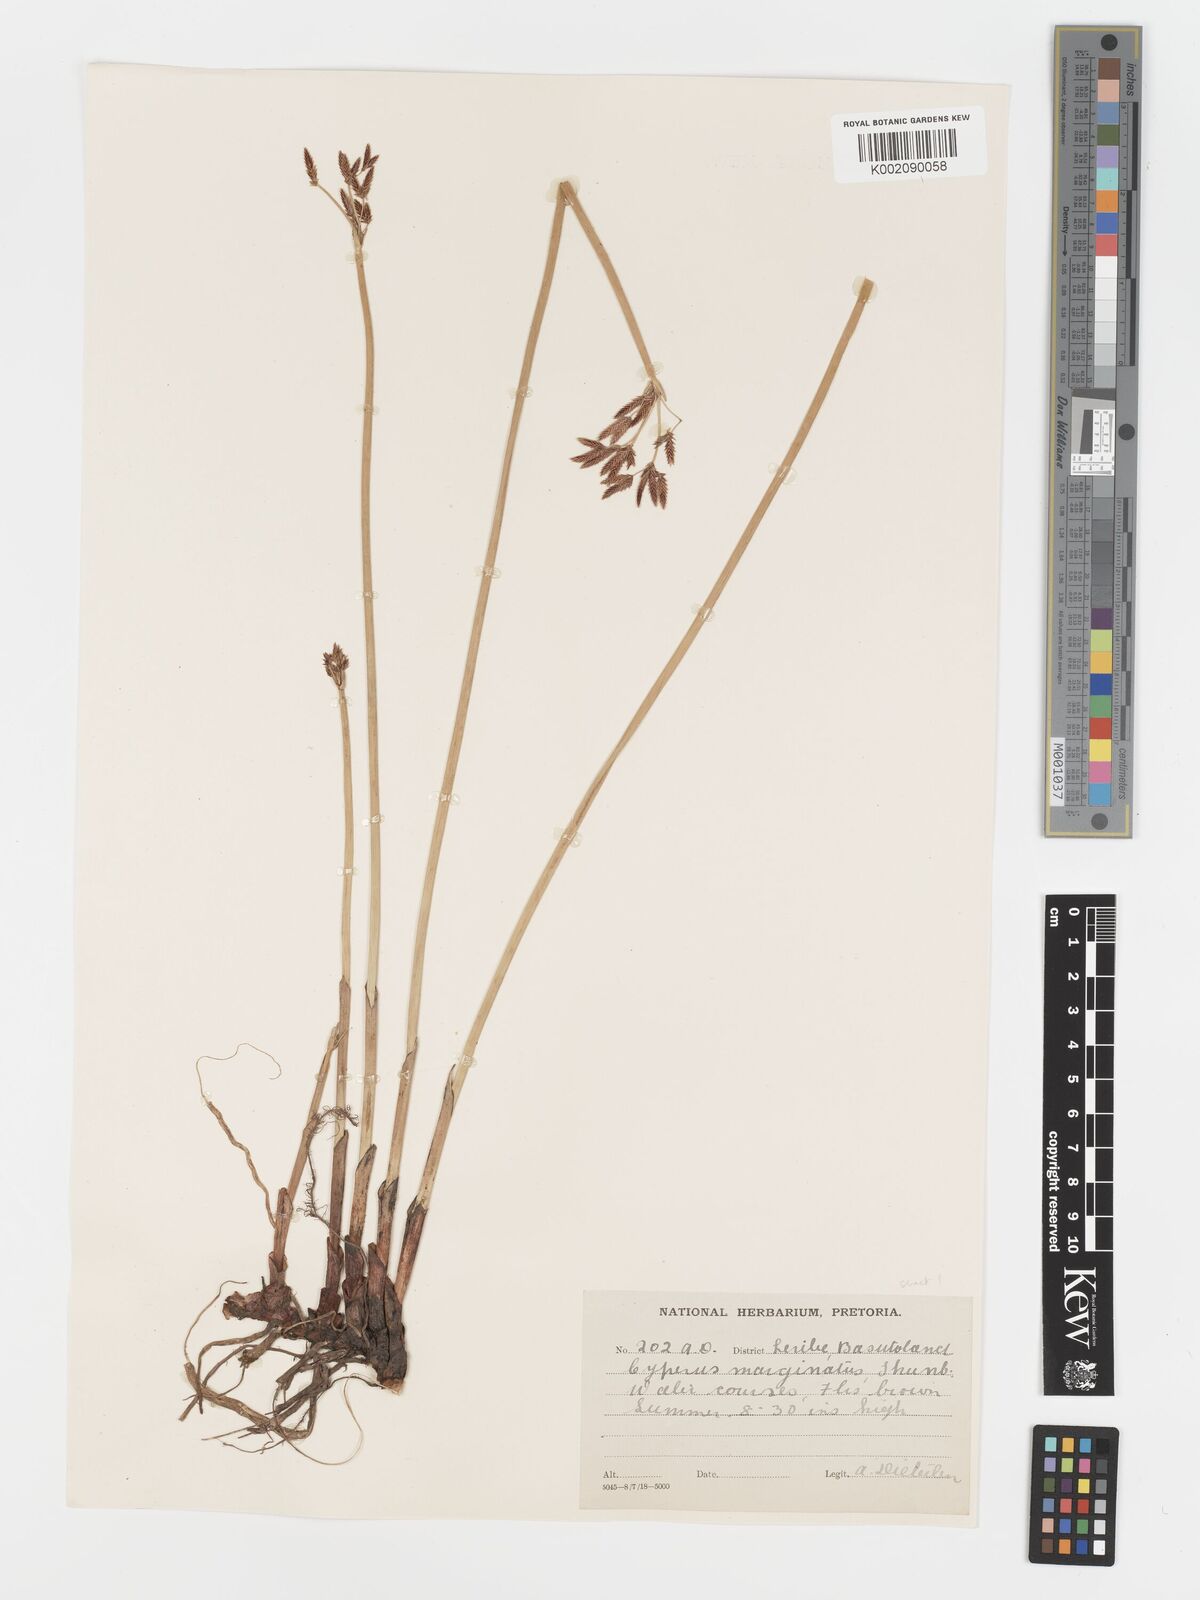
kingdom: Plantae
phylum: Tracheophyta
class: Liliopsida
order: Poales
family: Cyperaceae
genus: Cyperus
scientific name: Cyperus marginatus
